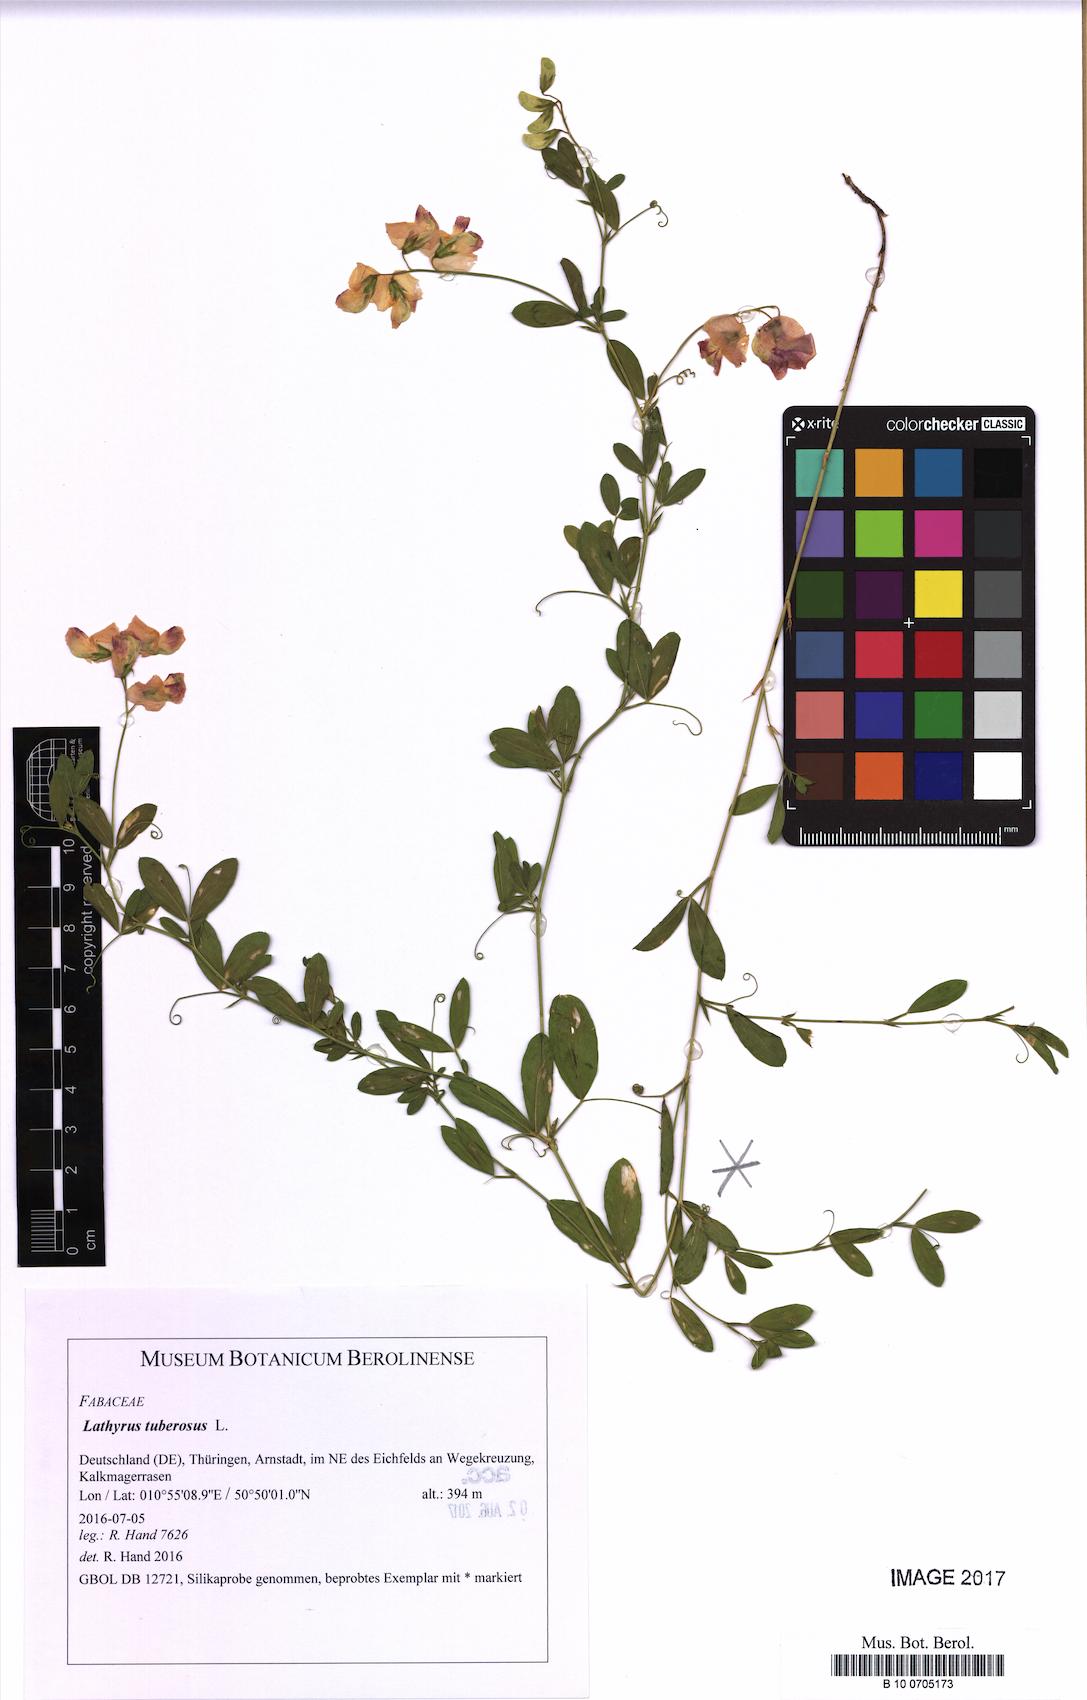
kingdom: Plantae
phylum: Tracheophyta
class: Magnoliopsida
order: Fabales
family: Fabaceae
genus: Lathyrus
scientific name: Lathyrus tuberosus
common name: Tuberous pea
